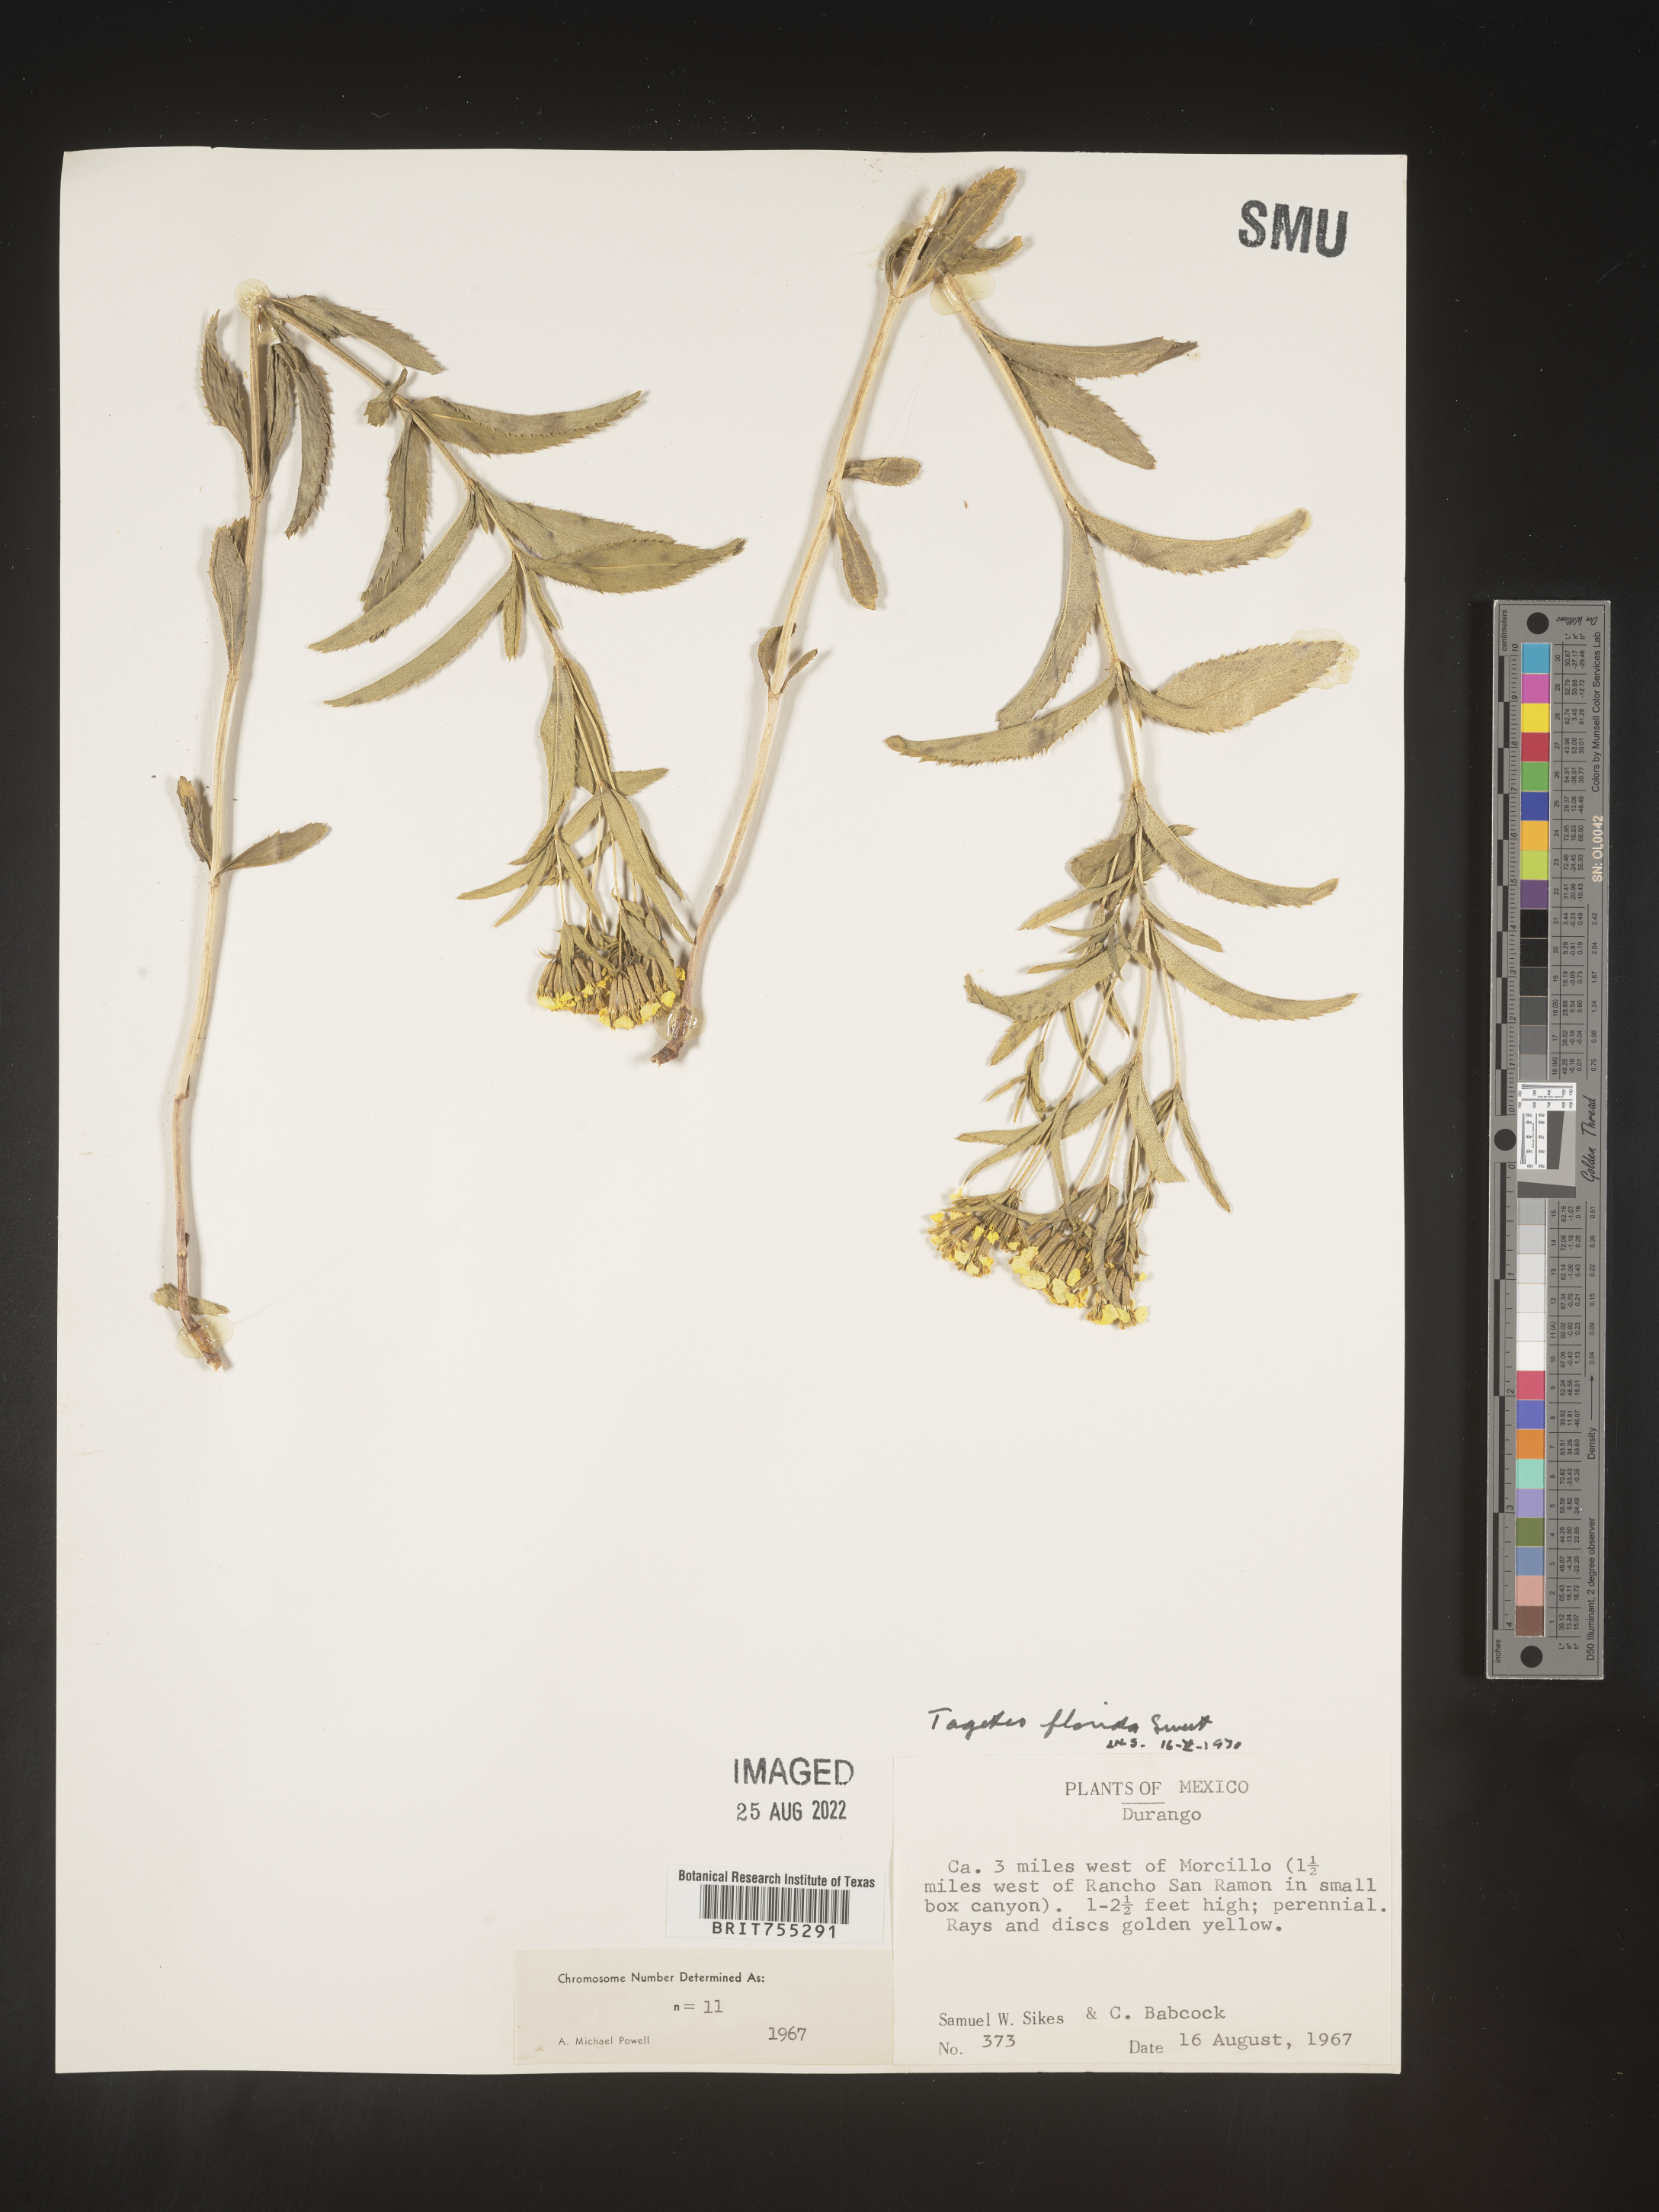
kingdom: Plantae
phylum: Tracheophyta
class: Magnoliopsida
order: Asterales
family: Asteraceae
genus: Tagetes
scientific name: Tagetes
